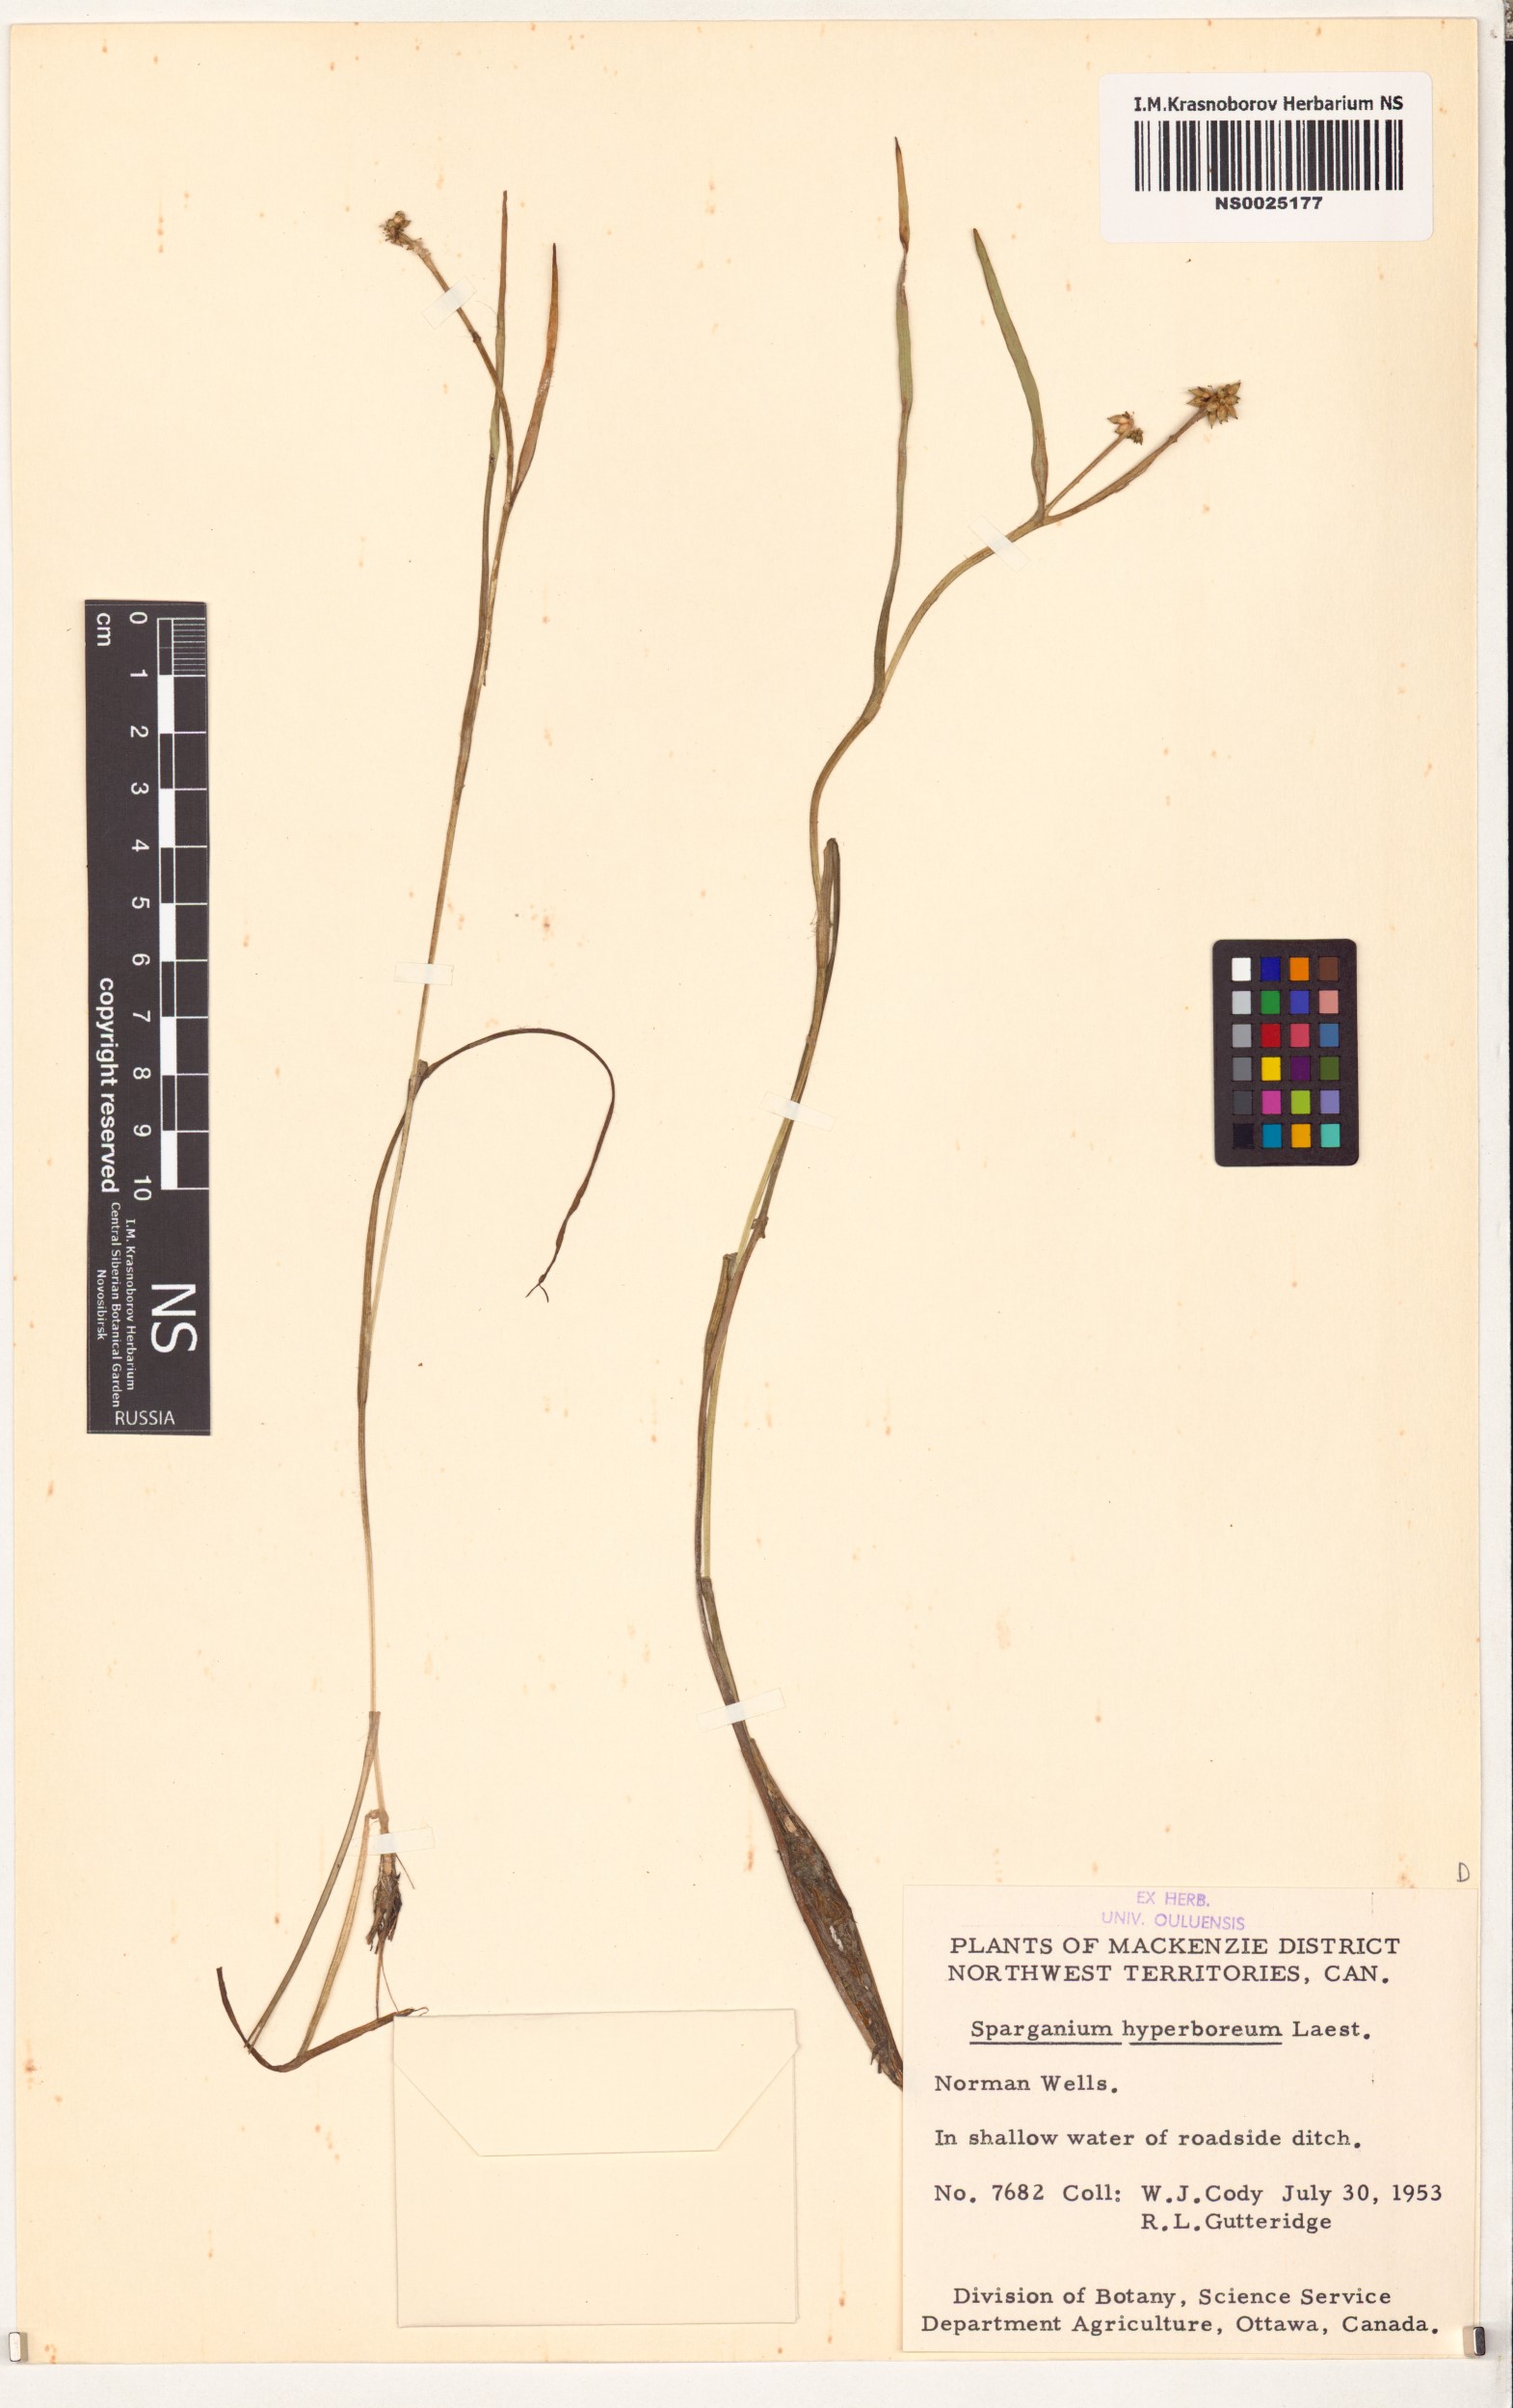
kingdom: Plantae
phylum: Tracheophyta
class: Liliopsida
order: Poales
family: Typhaceae
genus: Sparganium
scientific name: Sparganium hyperboreum
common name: Arctic burreed
